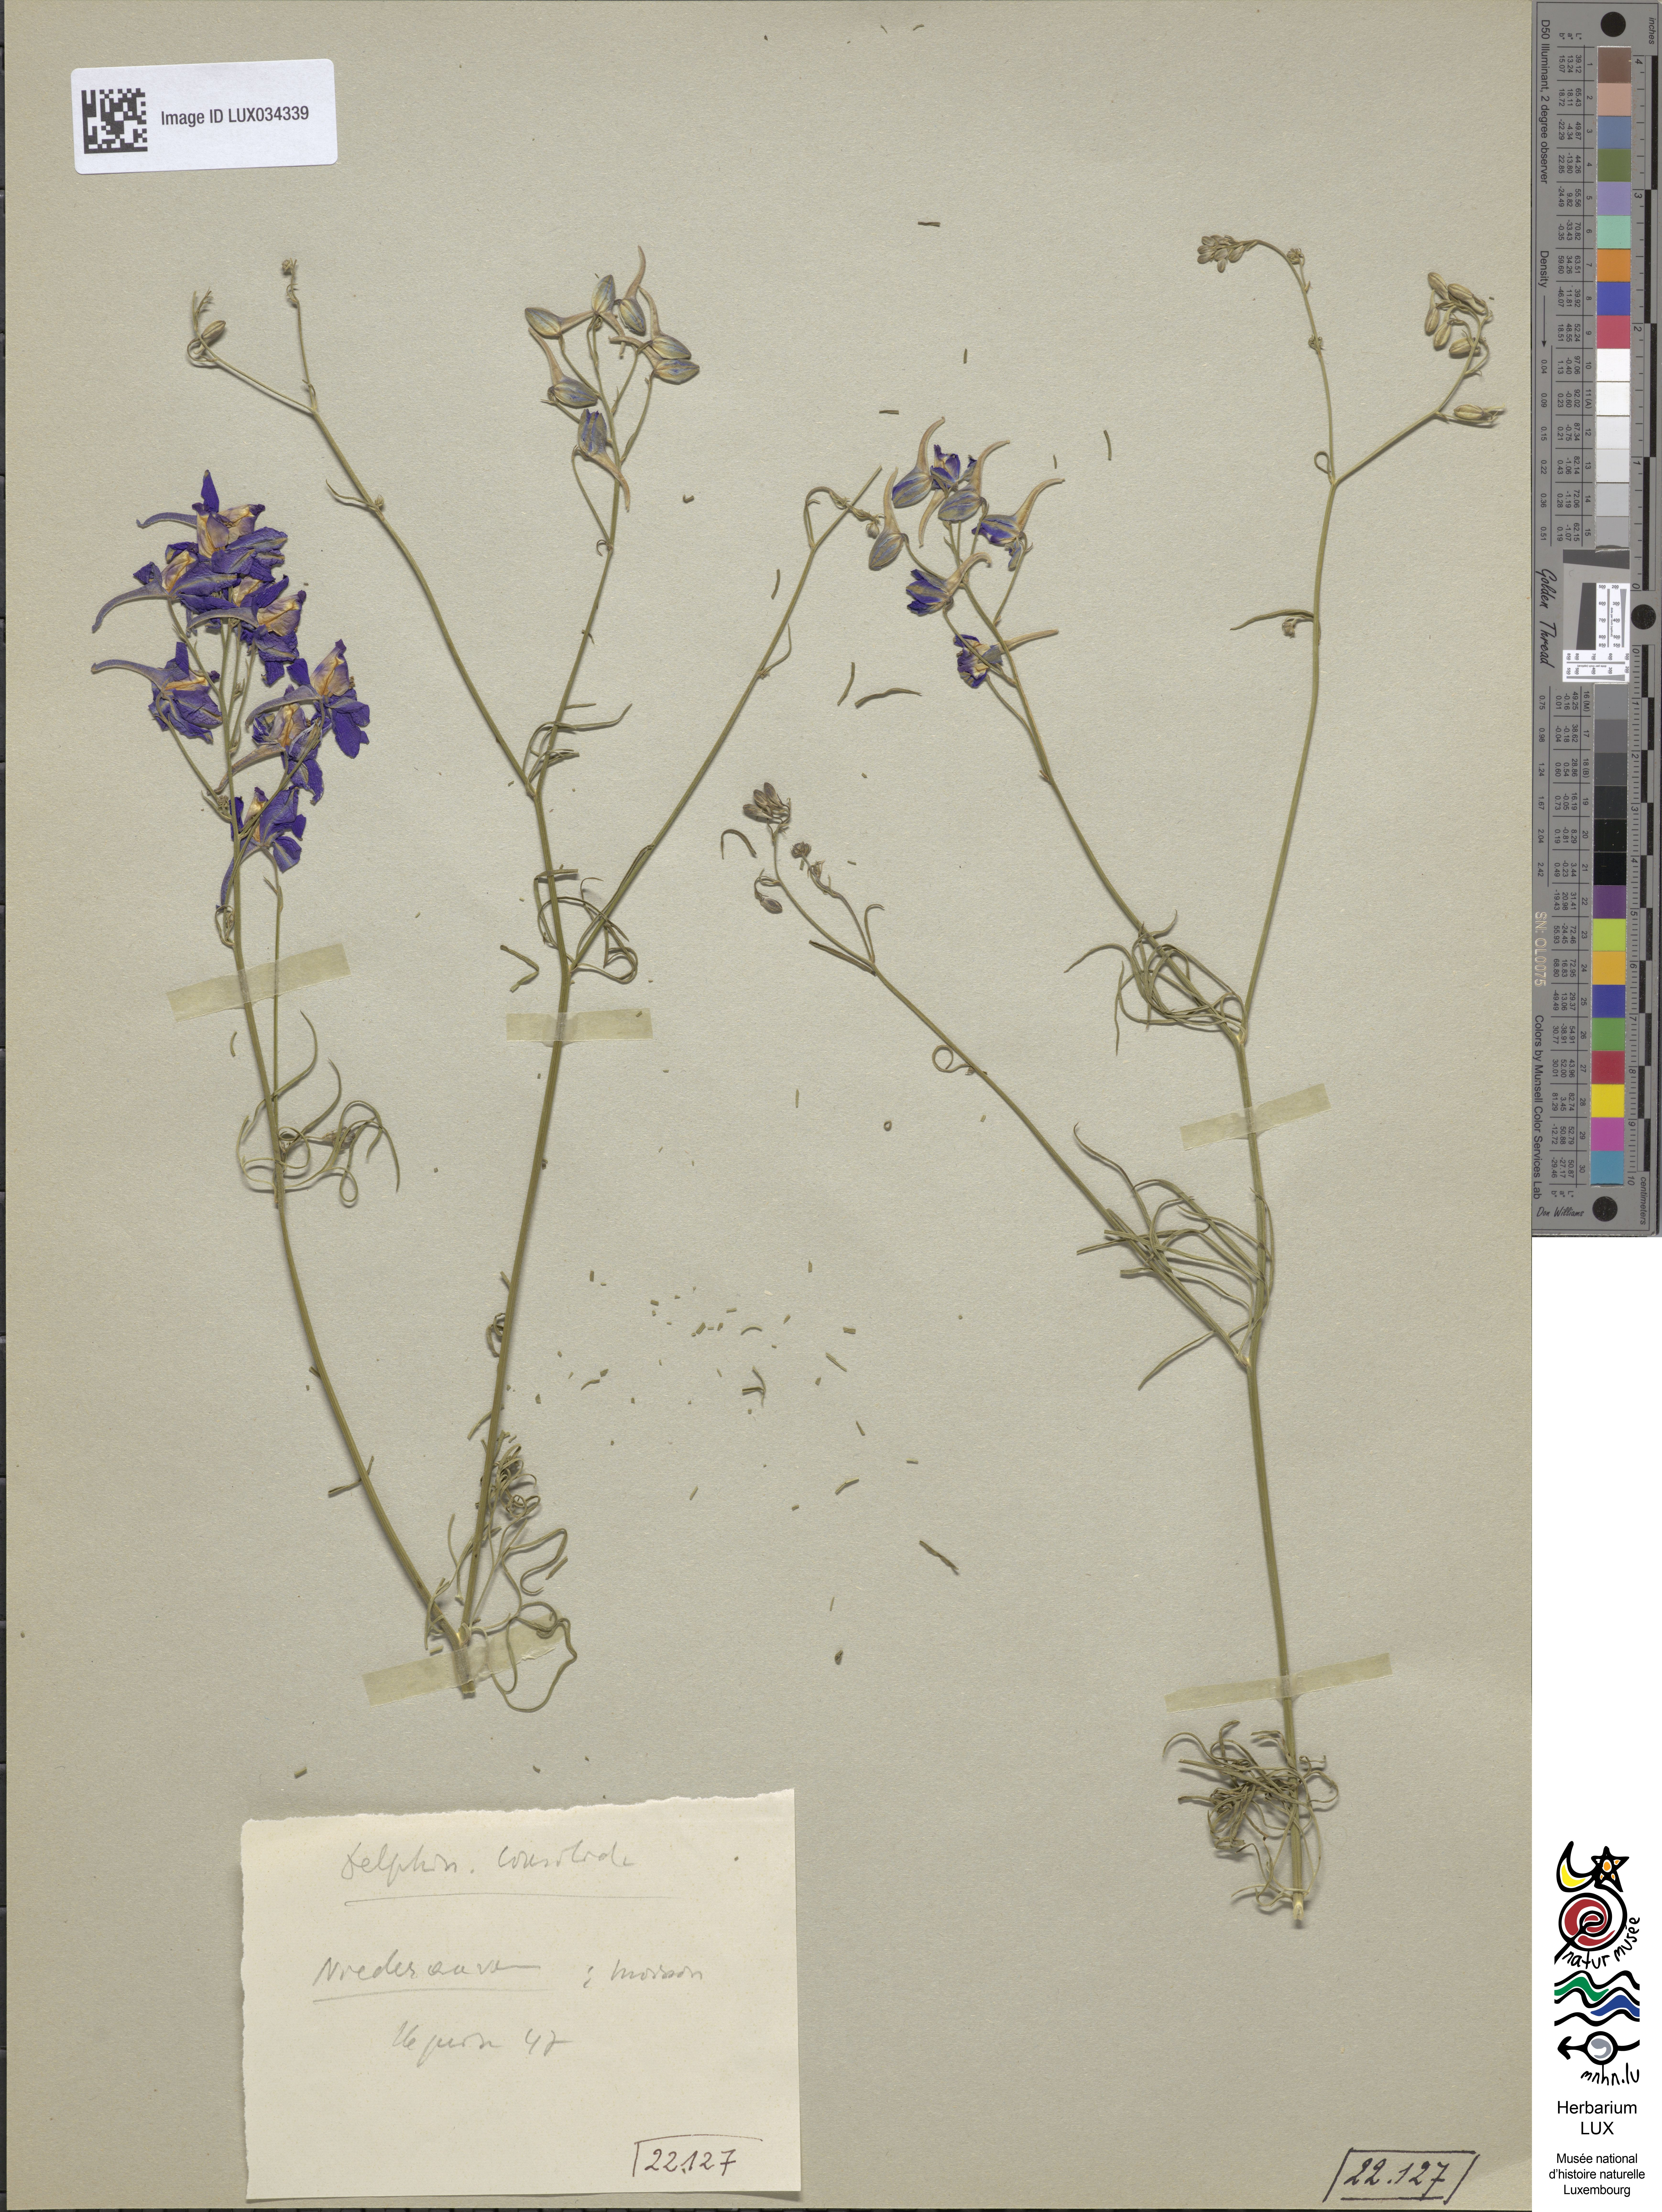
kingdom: Plantae
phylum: Tracheophyta
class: Magnoliopsida
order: Ranunculales
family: Ranunculaceae
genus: Delphinium
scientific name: Delphinium consolida
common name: Branching larkspur
